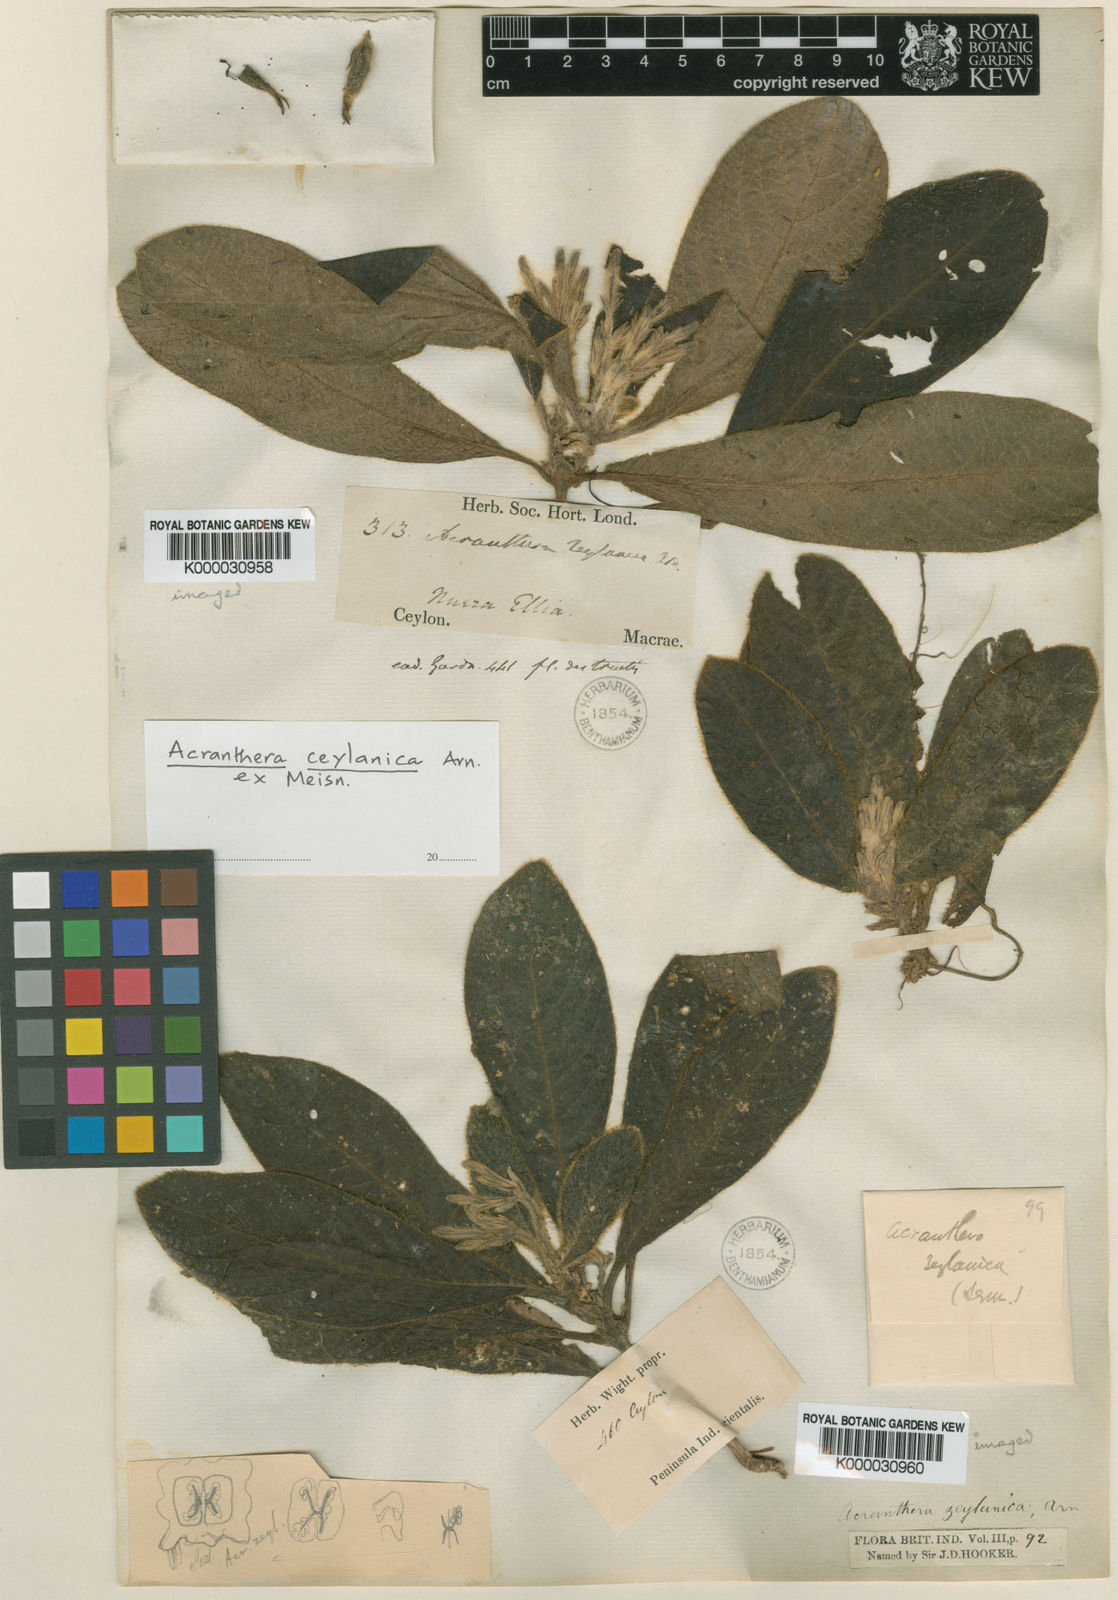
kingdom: Plantae
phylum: Tracheophyta
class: Magnoliopsida
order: Gentianales
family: Rubiaceae
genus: Acranthera
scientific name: Acranthera ceylanica
